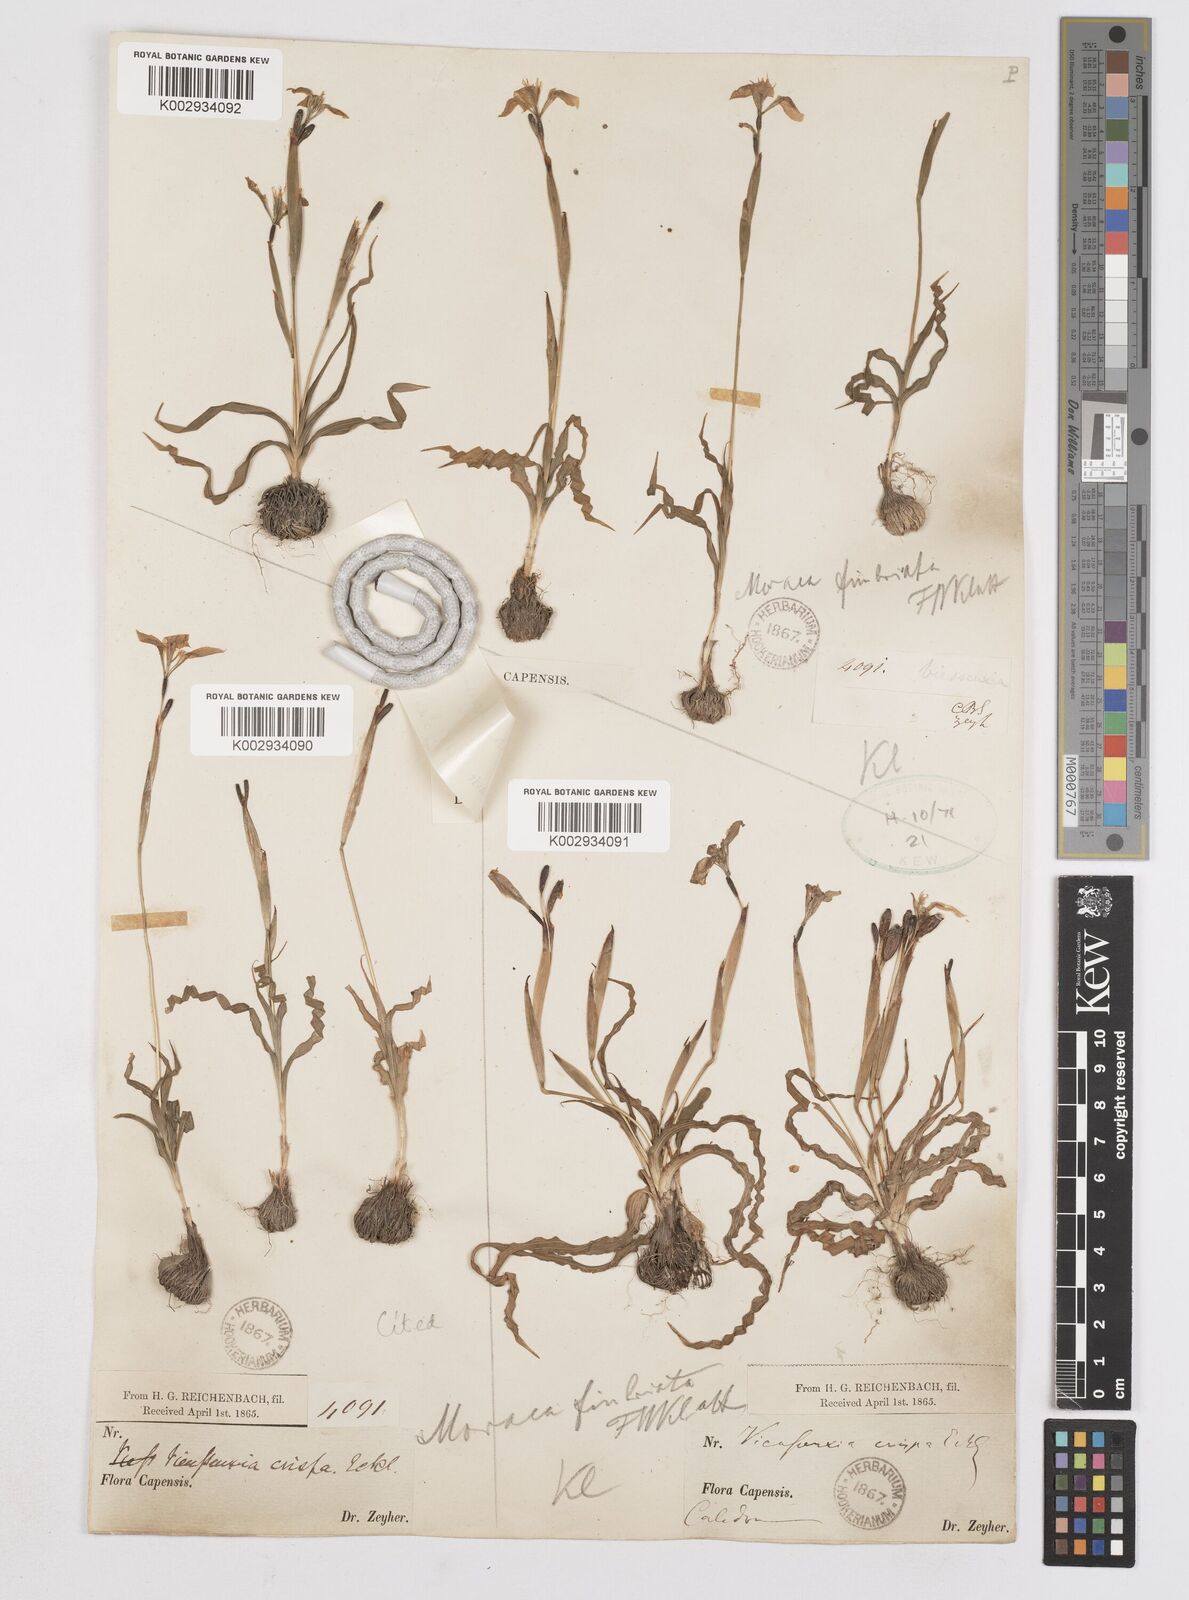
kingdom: Plantae
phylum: Tracheophyta
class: Liliopsida
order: Asparagales
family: Iridaceae
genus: Moraea
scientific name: Moraea fergusoniae
